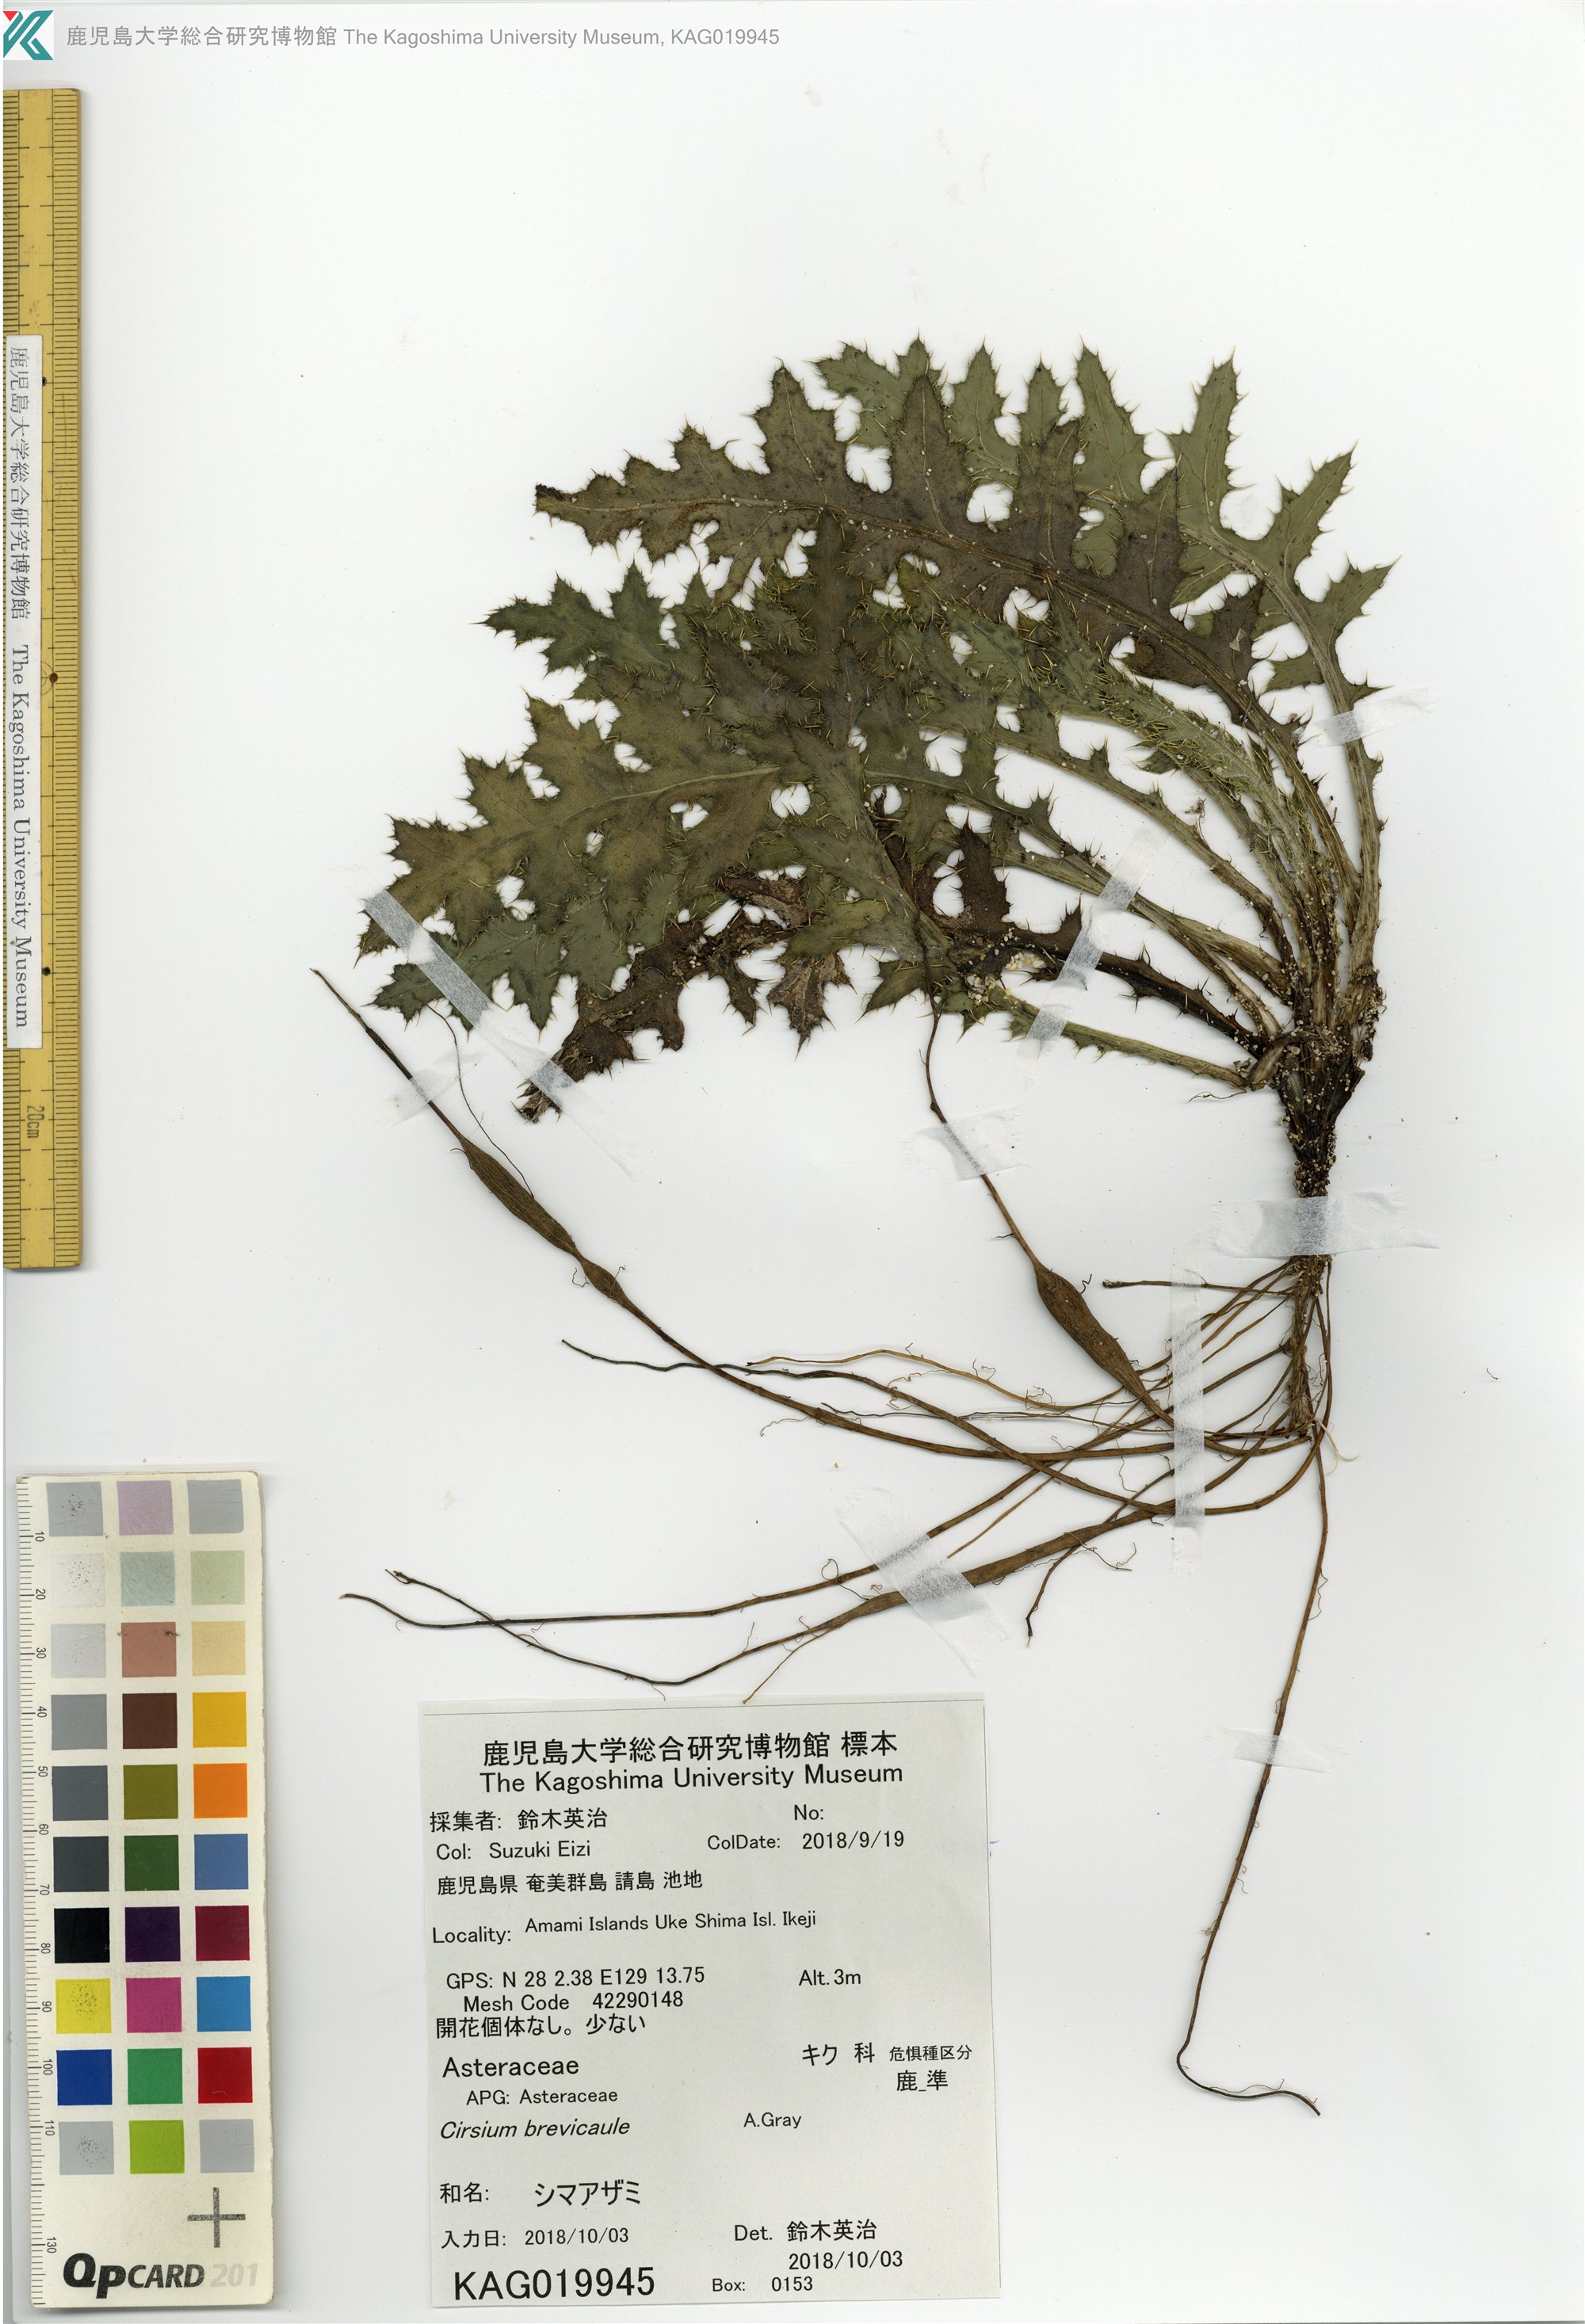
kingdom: Plantae
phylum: Tracheophyta
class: Magnoliopsida
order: Asterales
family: Asteraceae
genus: Cirsium
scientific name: Cirsium brevicaule
